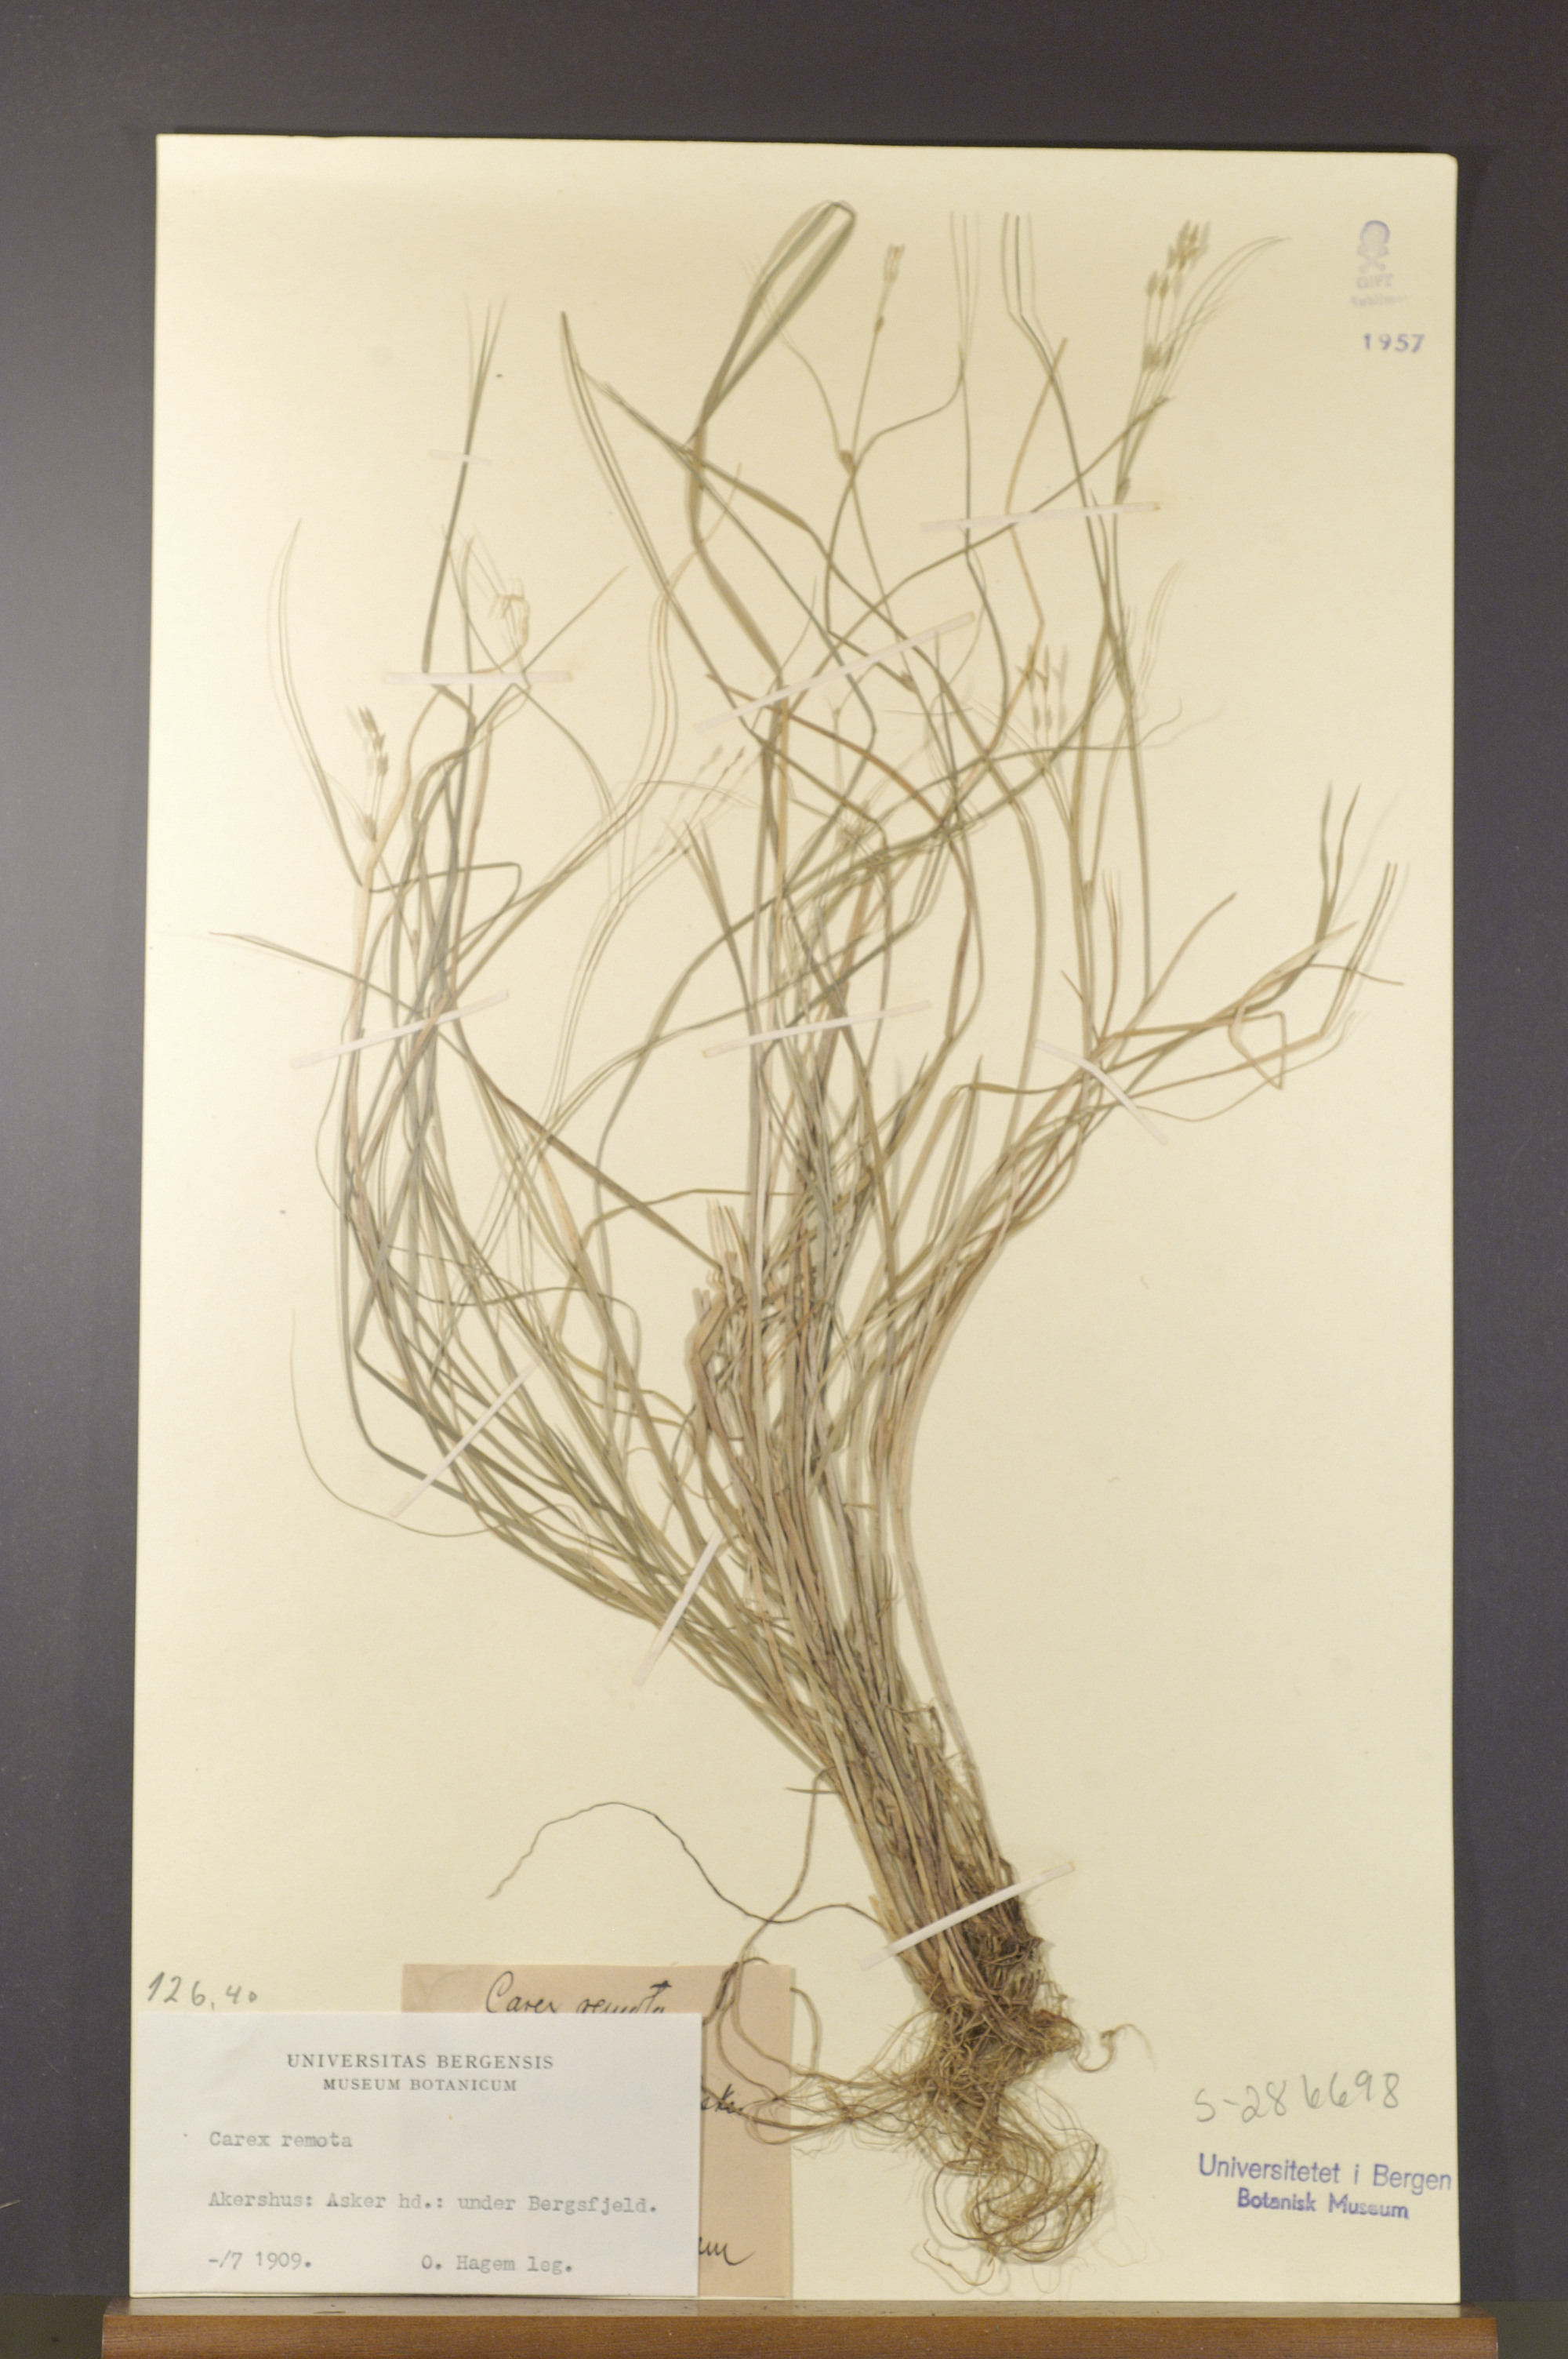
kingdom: Plantae
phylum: Tracheophyta
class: Liliopsida
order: Poales
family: Cyperaceae
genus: Carex
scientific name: Carex remota
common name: Remote sedge
